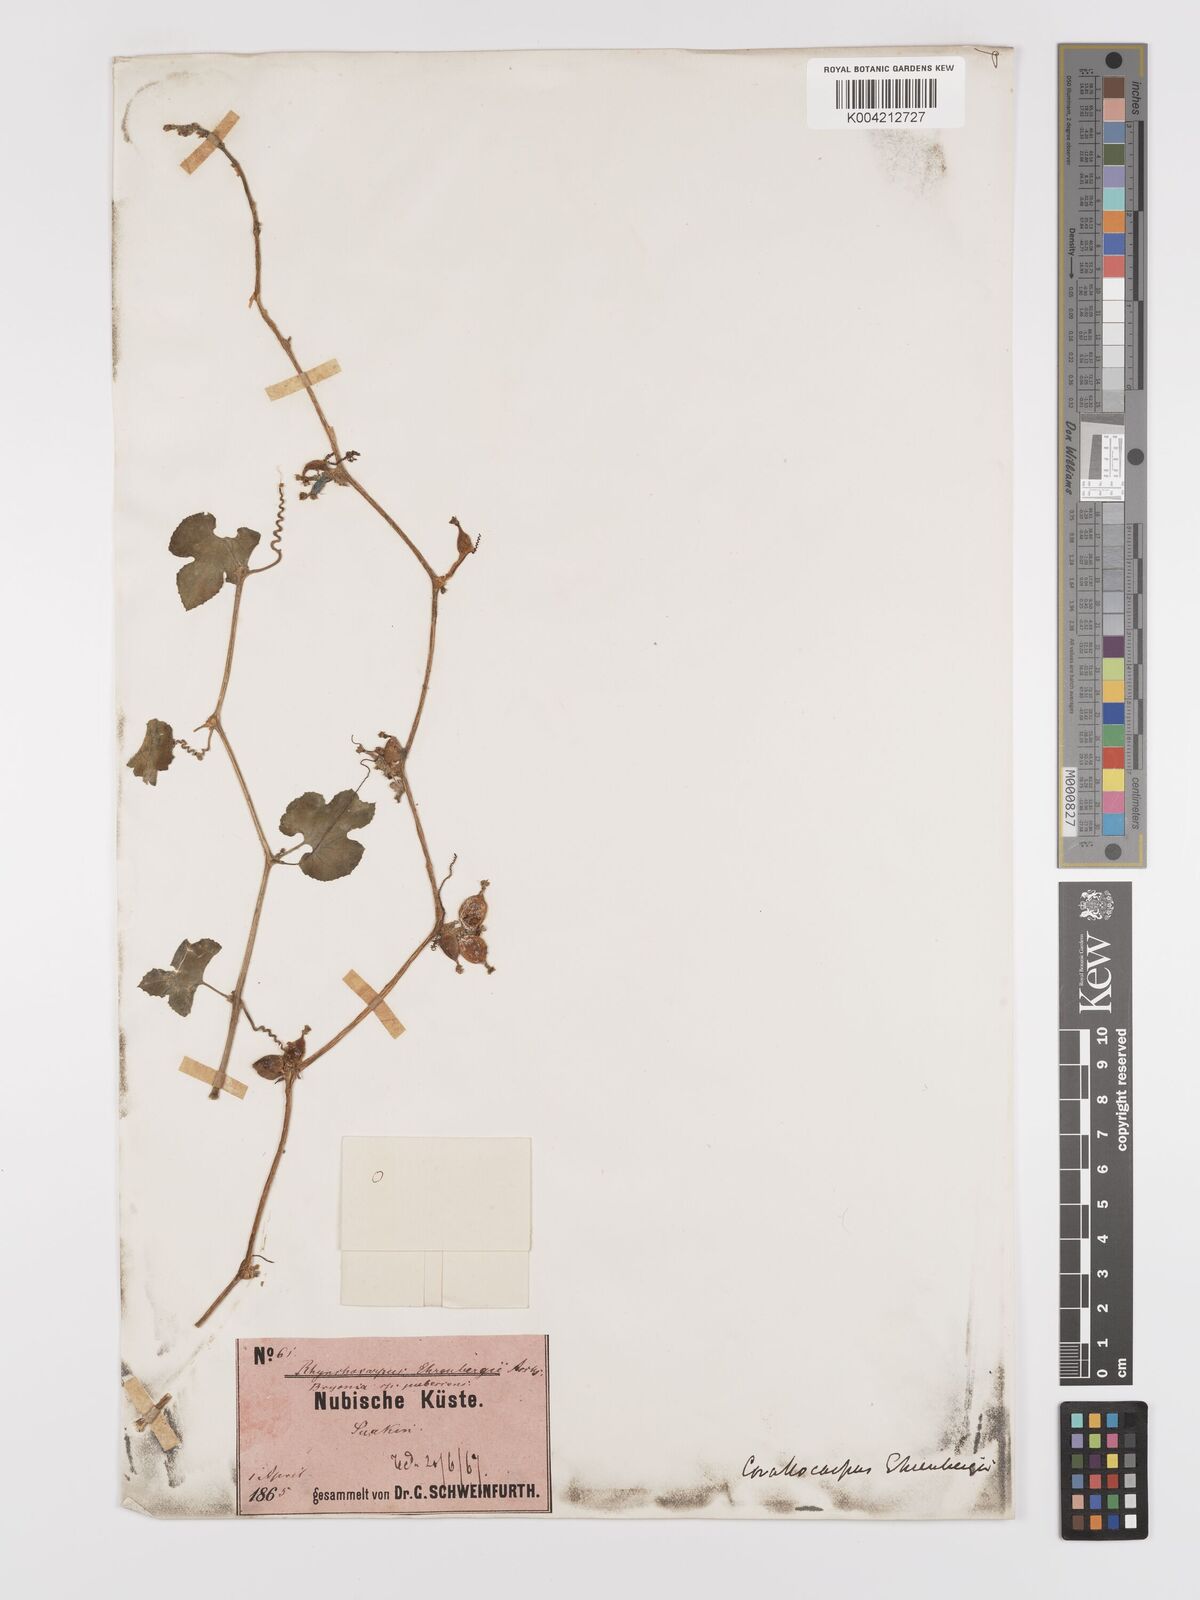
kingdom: Plantae
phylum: Tracheophyta
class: Magnoliopsida
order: Cucurbitales
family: Cucurbitaceae
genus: Corallocarpus
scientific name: Corallocarpus schimperi
